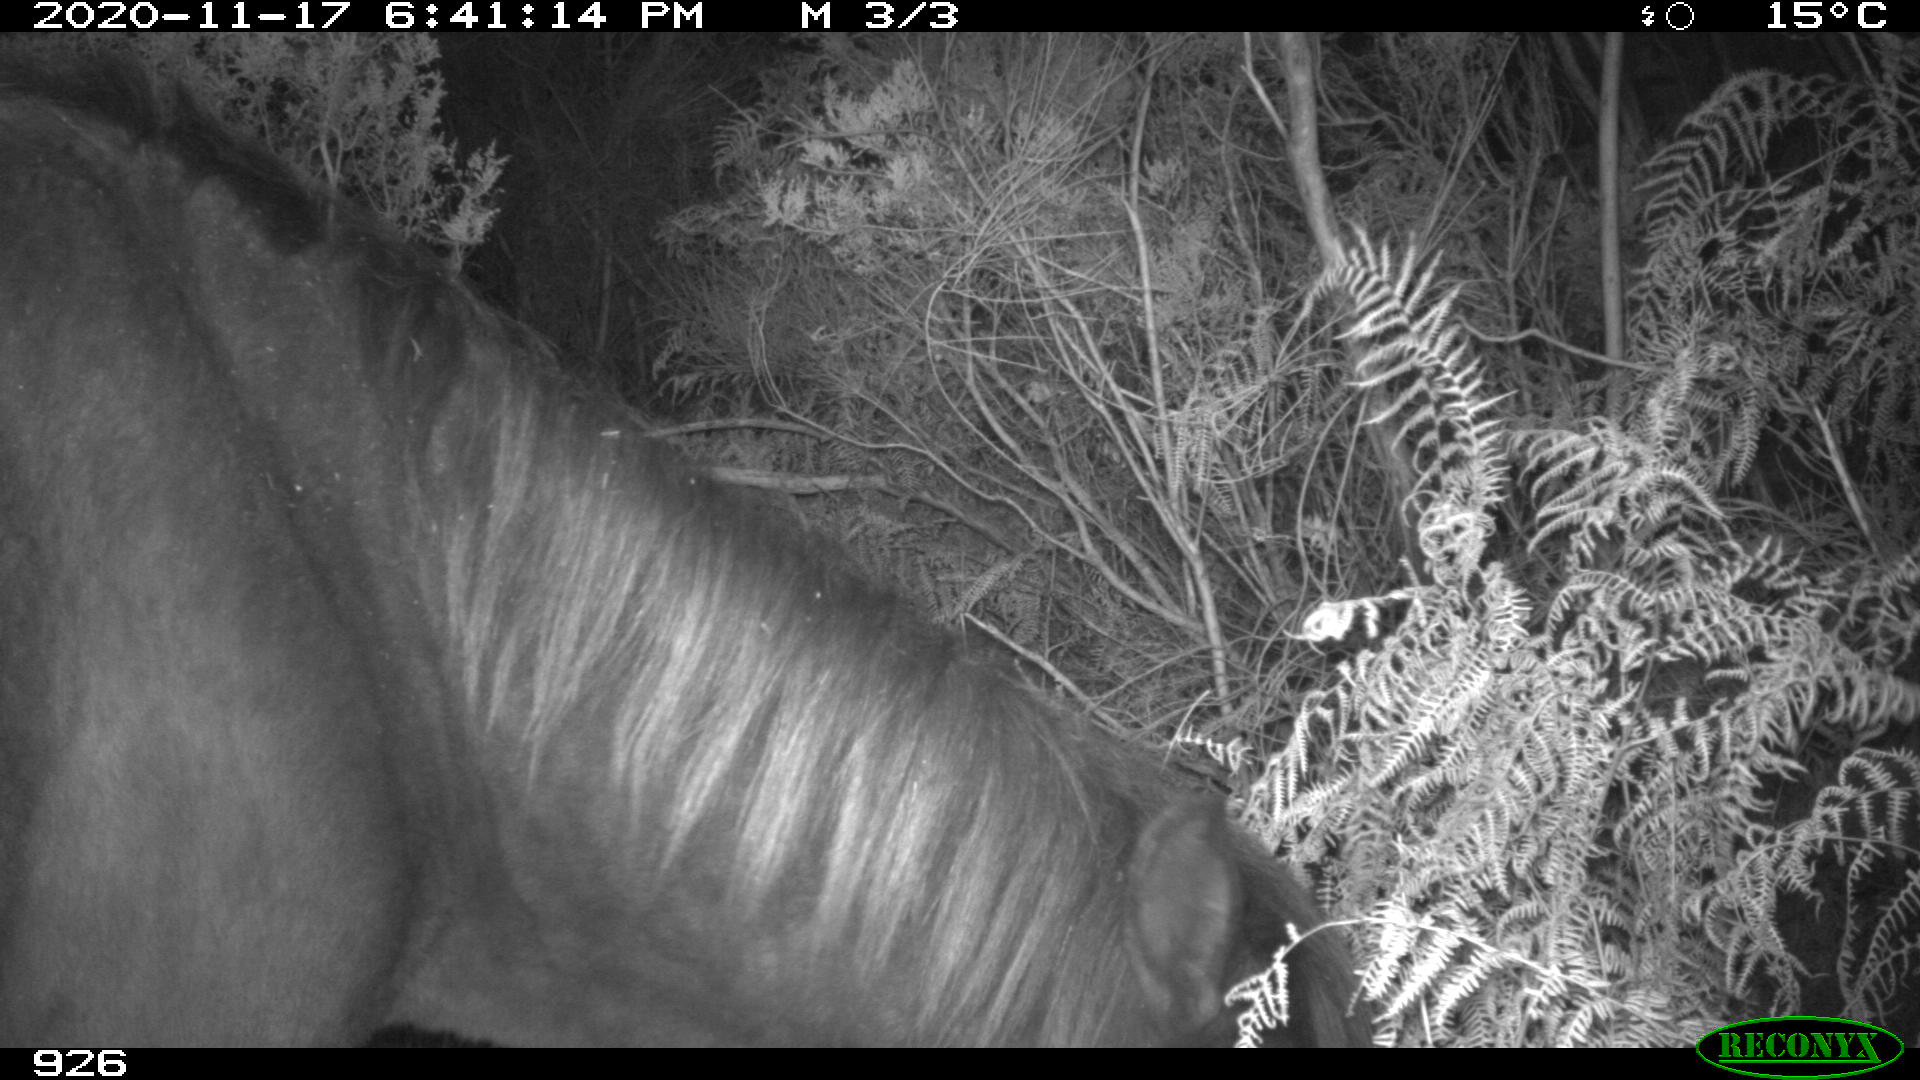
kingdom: Animalia
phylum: Chordata
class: Mammalia
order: Perissodactyla
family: Equidae
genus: Equus
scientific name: Equus caballus
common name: Horse
